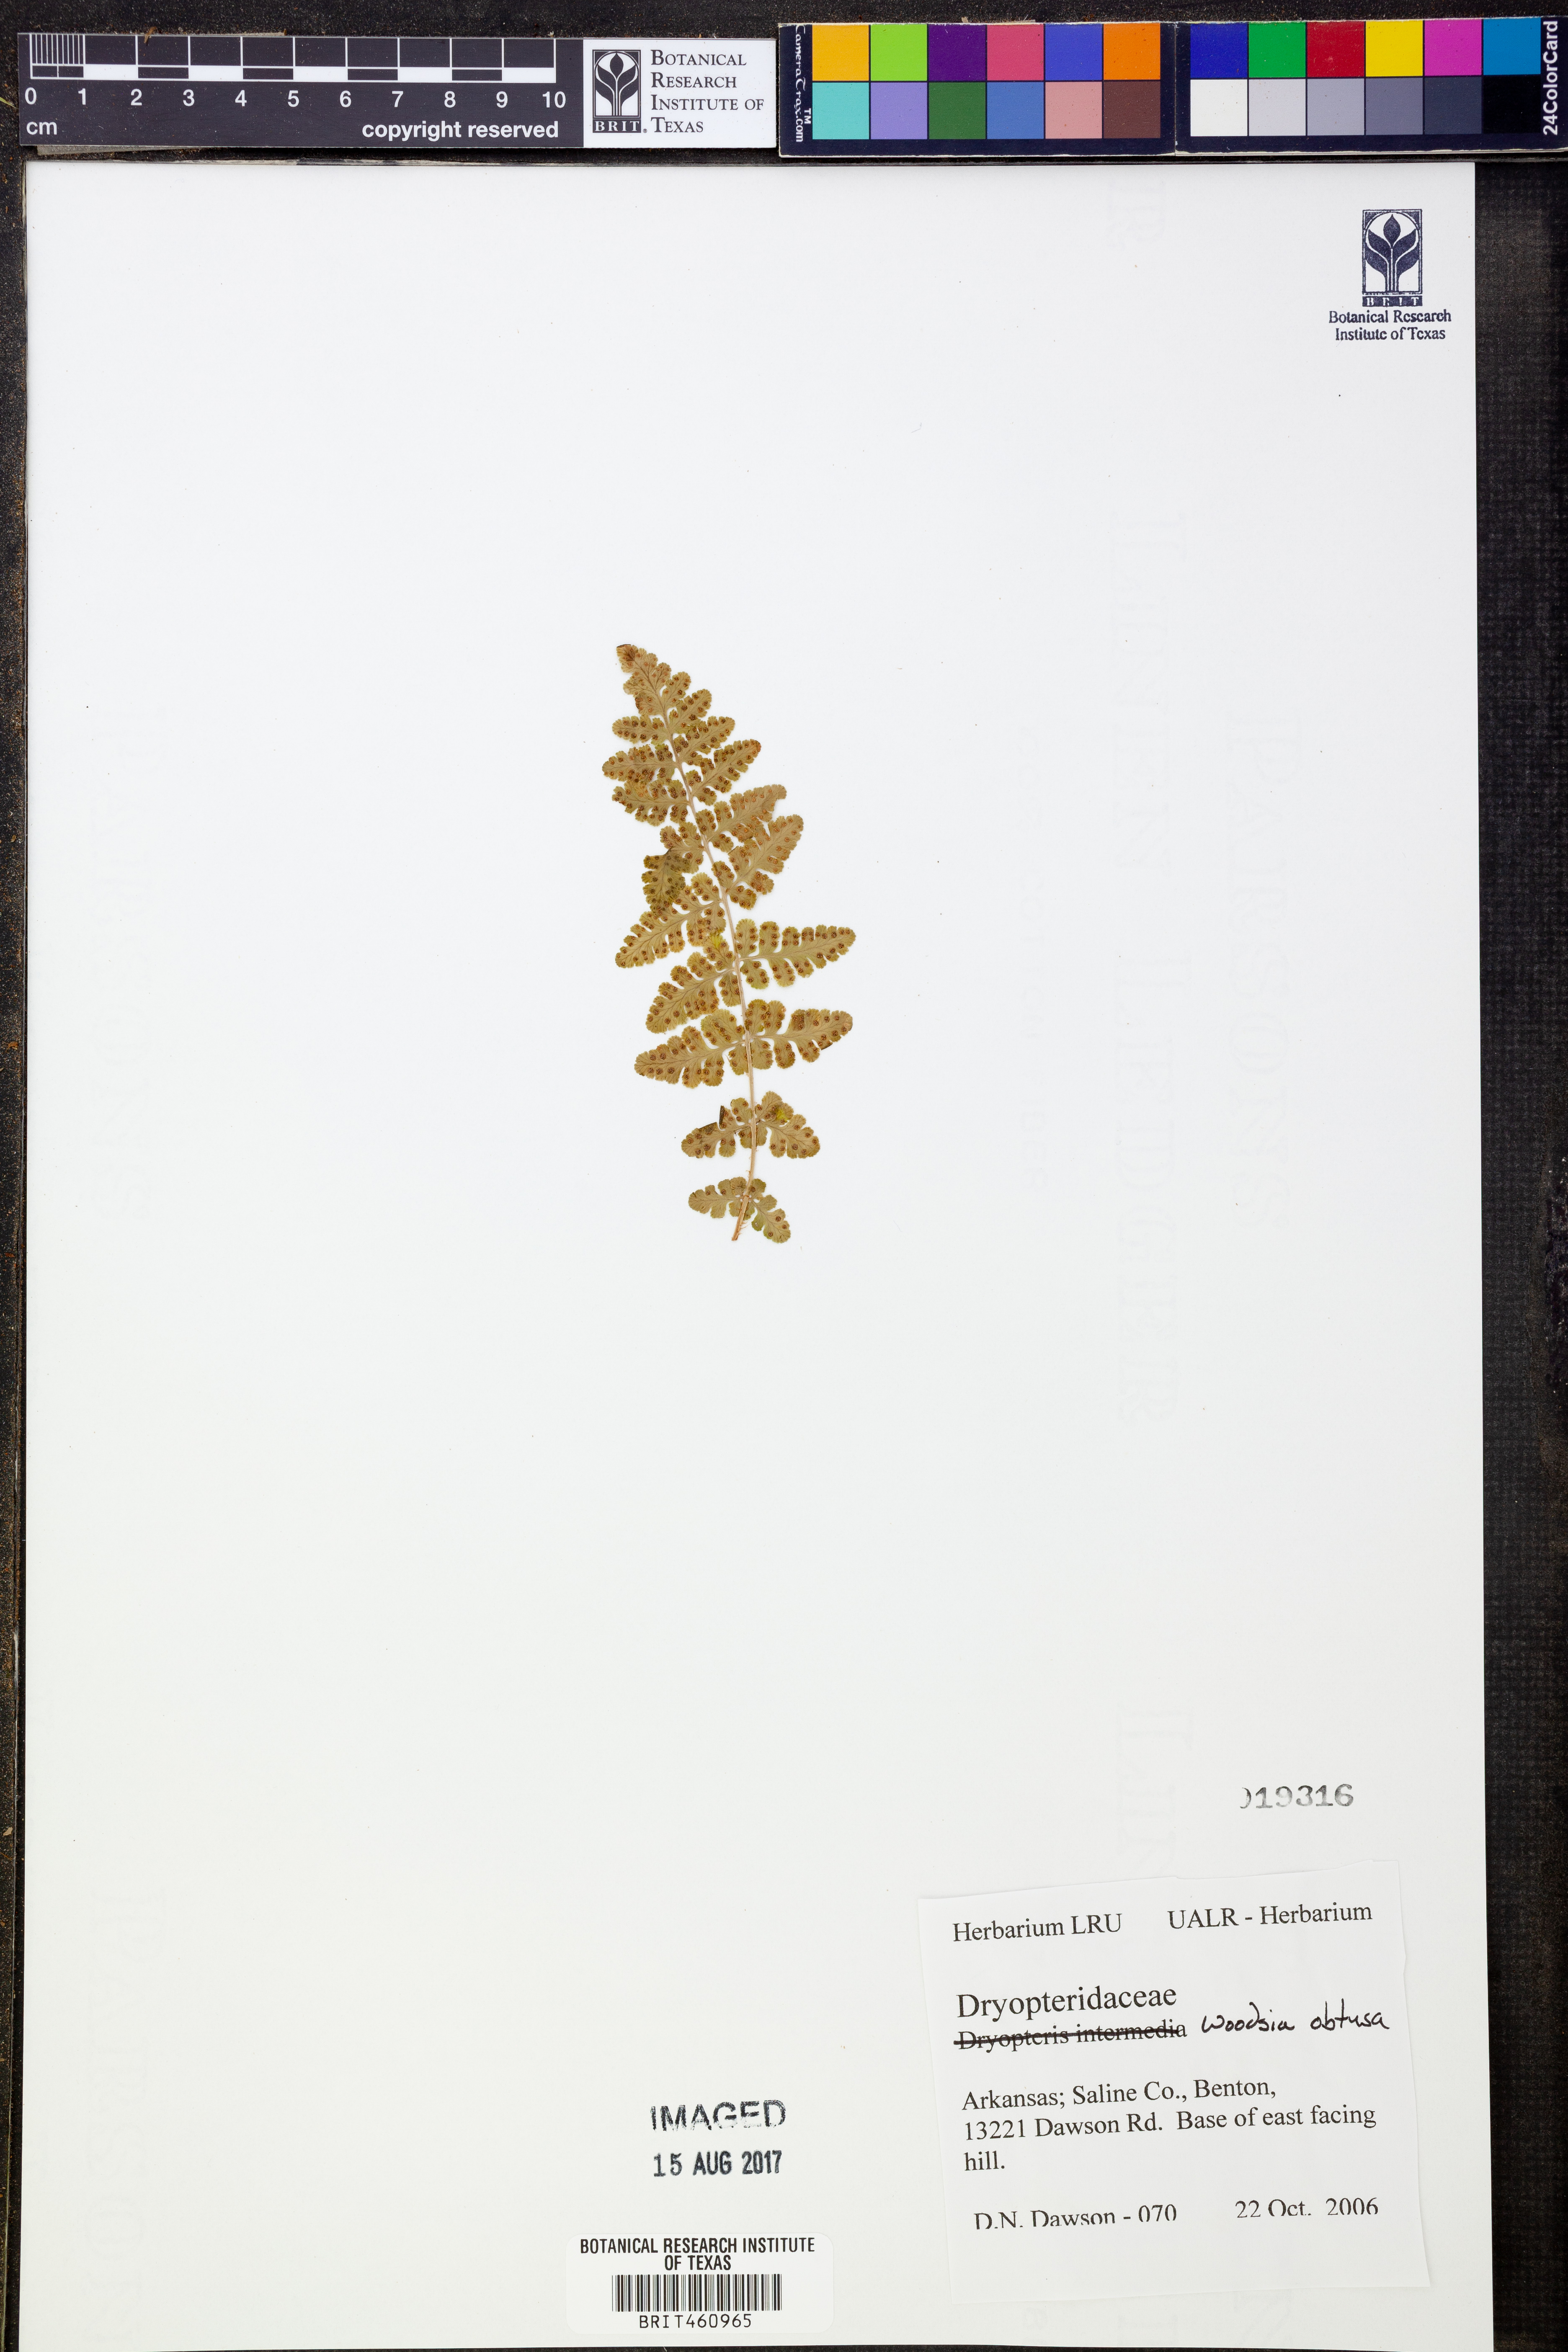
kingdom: Plantae
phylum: Tracheophyta
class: Polypodiopsida
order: Polypodiales
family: Woodsiaceae
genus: Physematium
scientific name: Physematium obtusum
